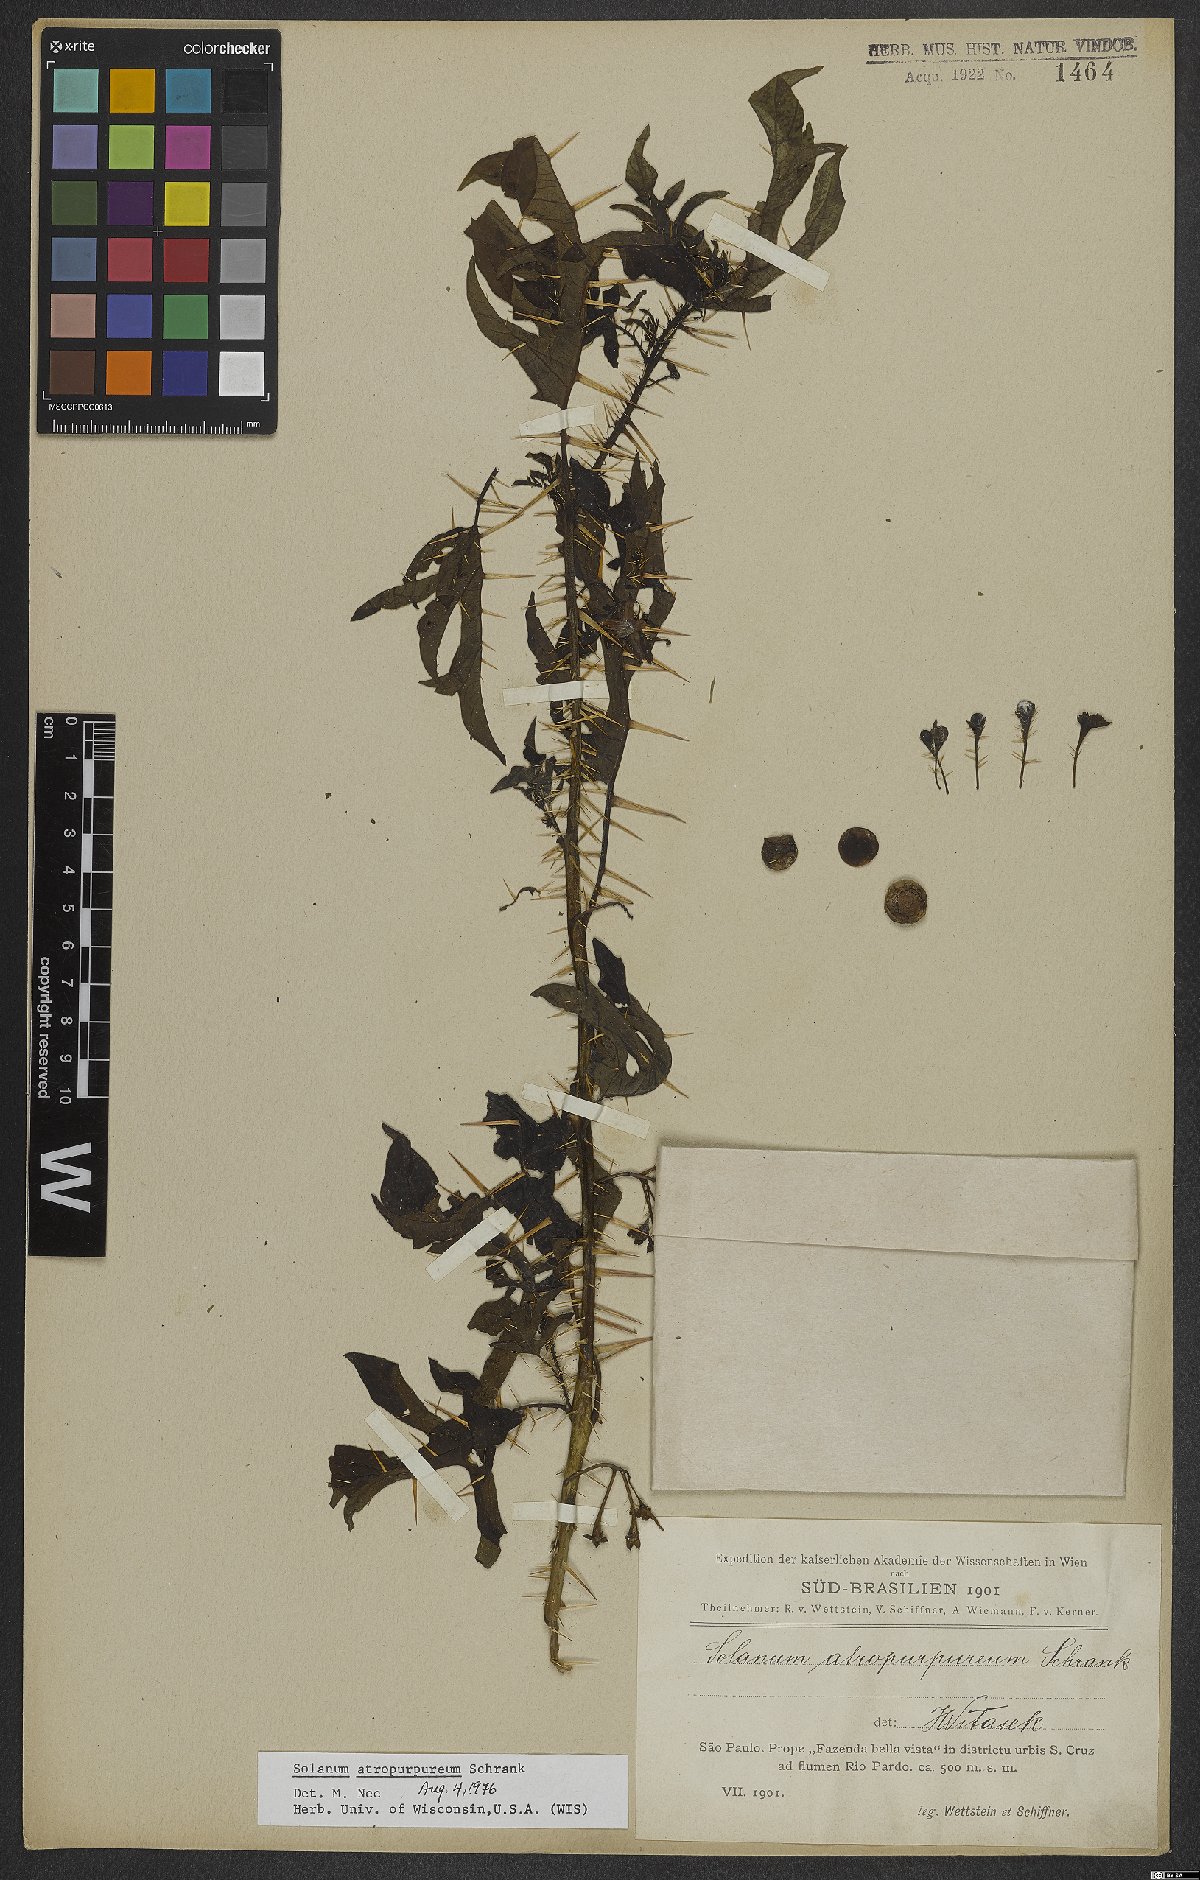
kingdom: Plantae
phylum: Tracheophyta
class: Magnoliopsida
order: Solanales
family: Solanaceae
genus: Solanum
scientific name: Solanum atropurpureum
